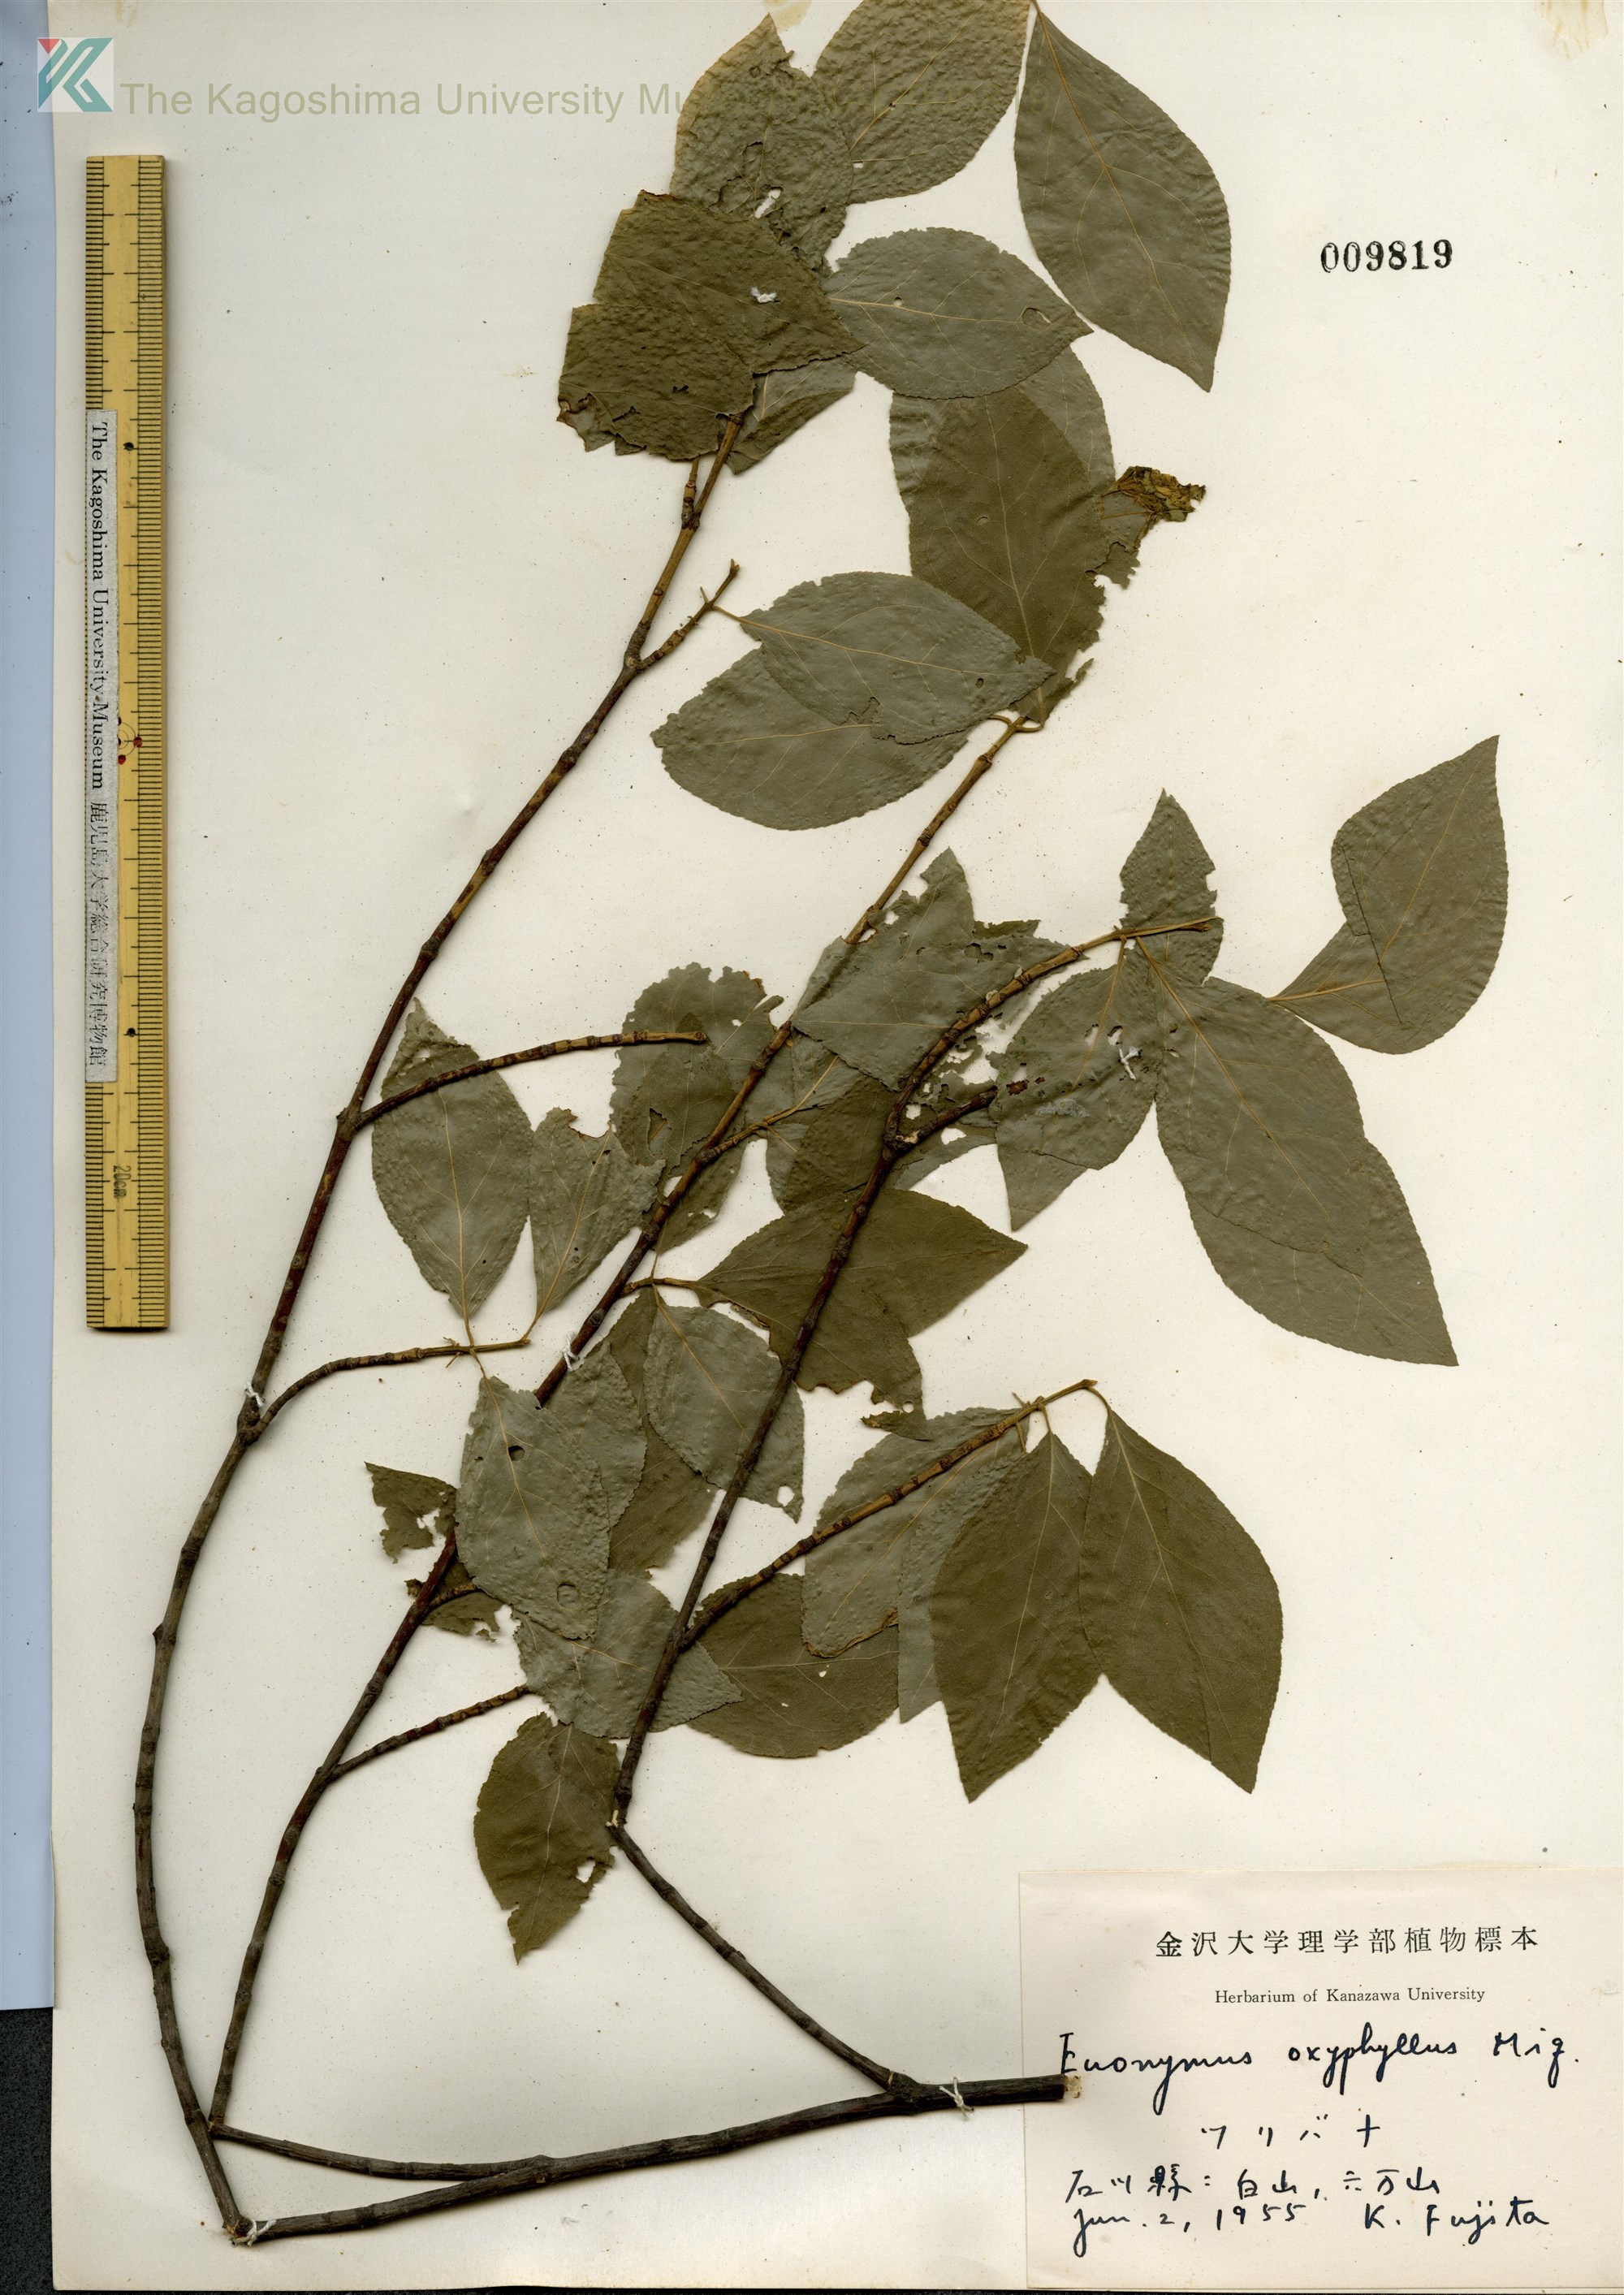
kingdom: Plantae
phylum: Tracheophyta
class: Magnoliopsida
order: Celastrales
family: Celastraceae
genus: Euonymus
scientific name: Euonymus oxyphyllus
